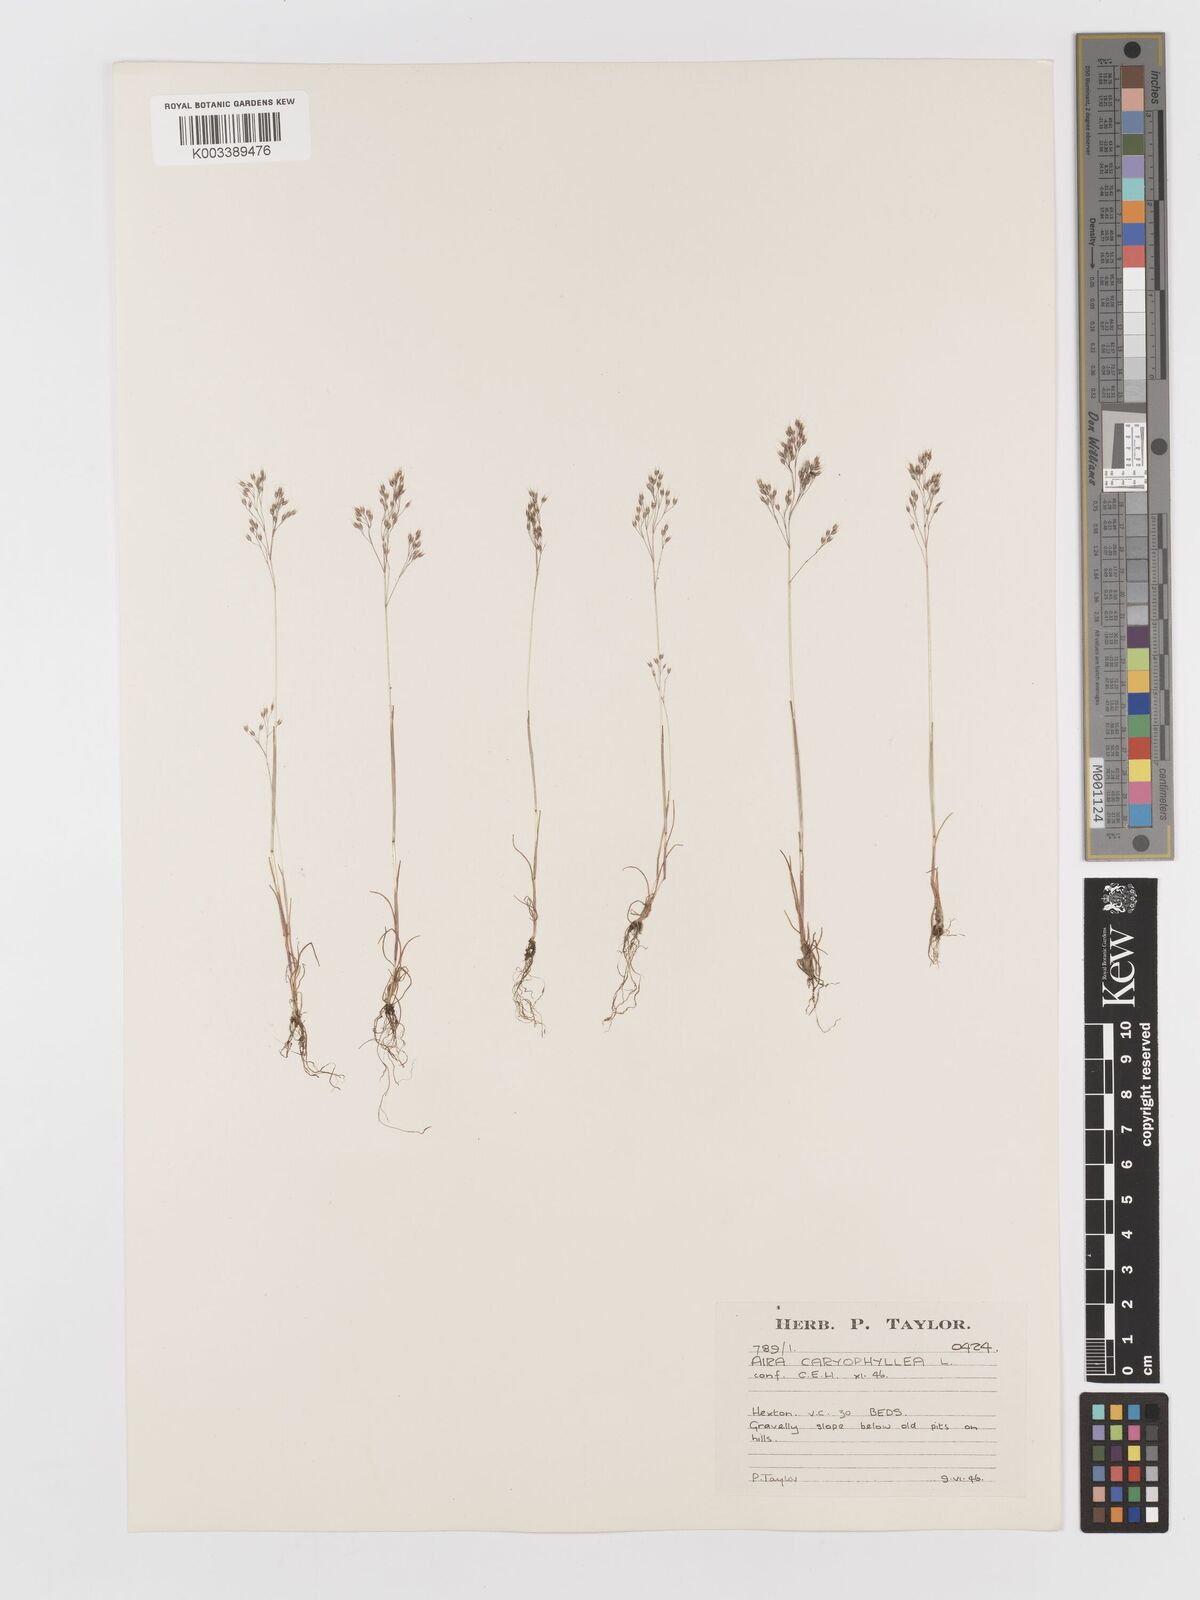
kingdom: Plantae
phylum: Tracheophyta
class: Liliopsida
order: Poales
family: Poaceae
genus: Aira
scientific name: Aira caryophyllea
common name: Silver hairgrass
